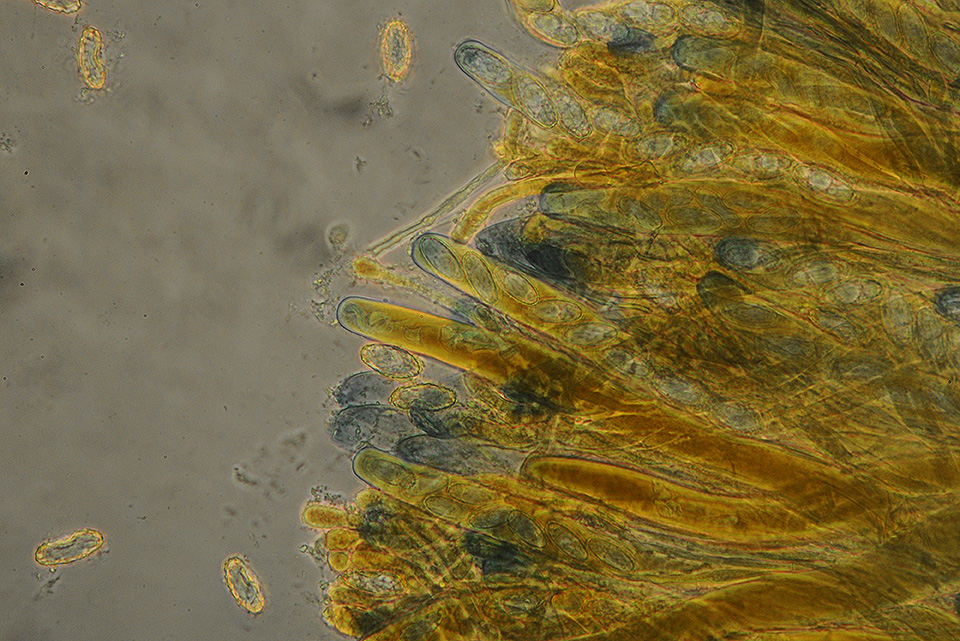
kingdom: Fungi
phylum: Ascomycota
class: Pezizomycetes
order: Pezizales
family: Pezizaceae
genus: Legaliana
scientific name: Legaliana badia
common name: leverbrun bægersvamp
